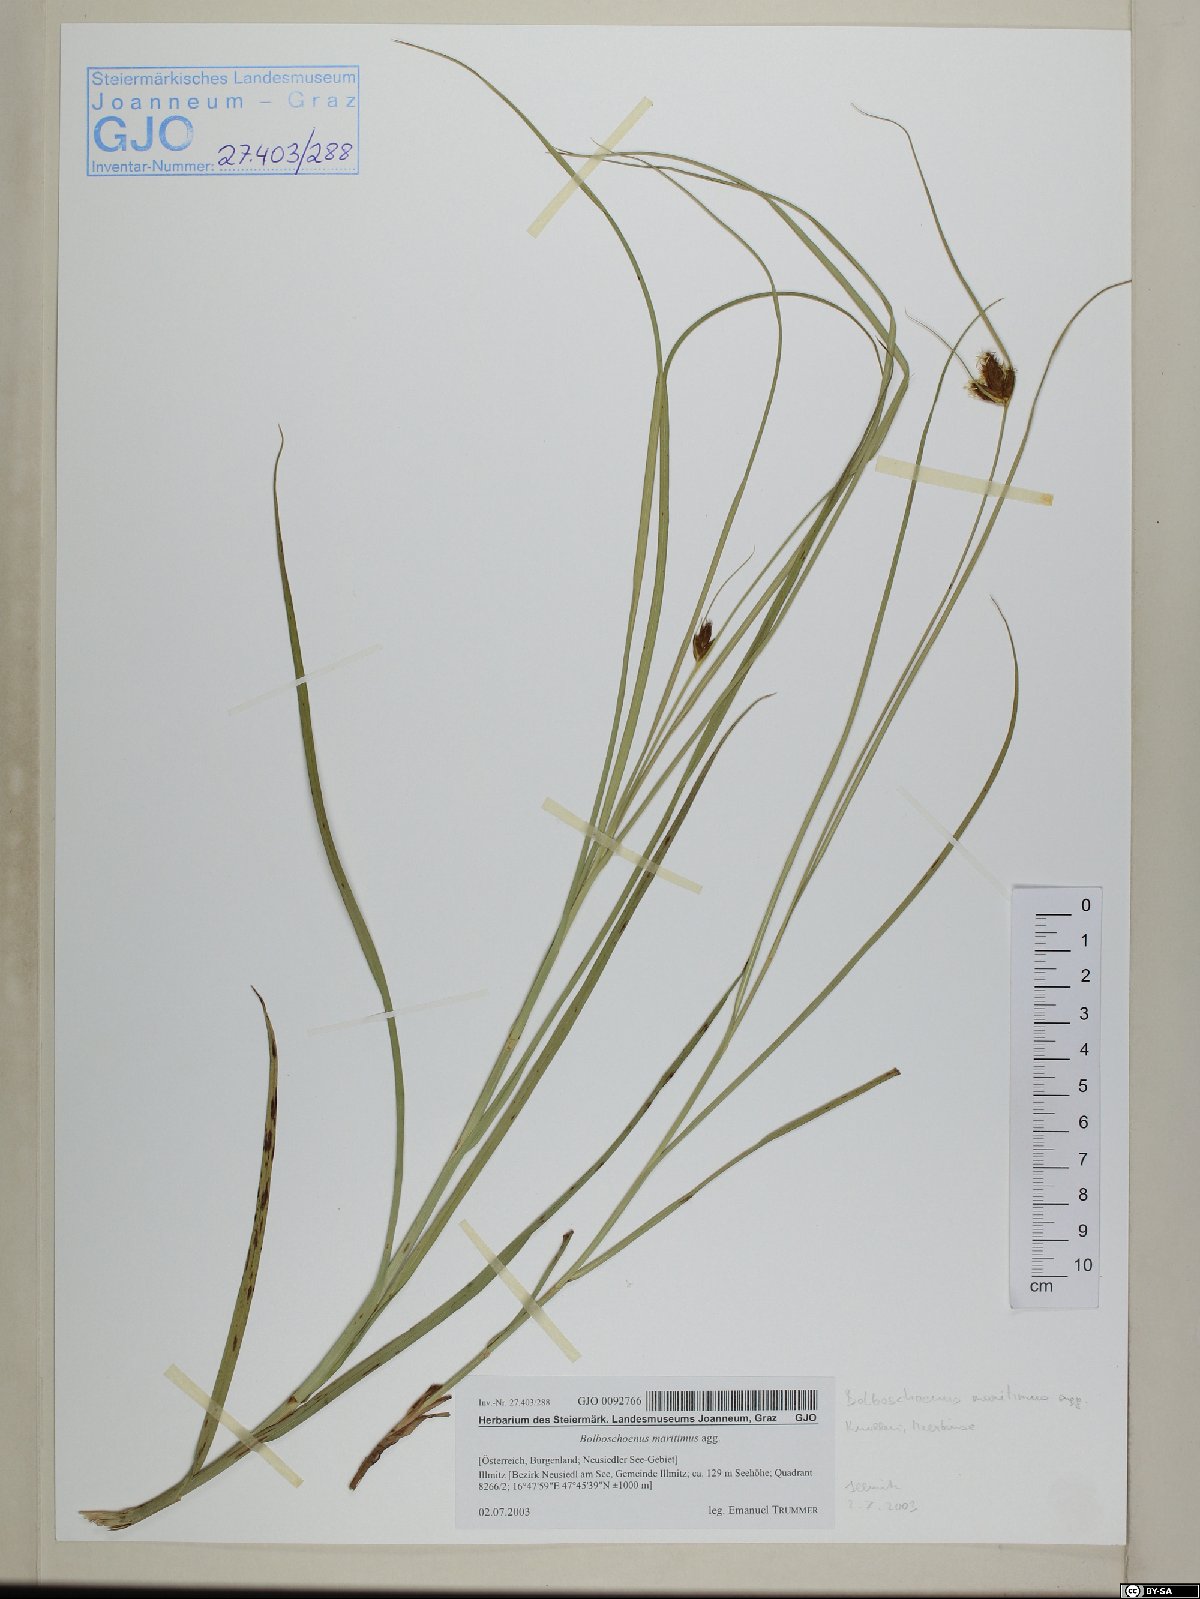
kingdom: Plantae
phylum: Tracheophyta
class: Liliopsida
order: Poales
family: Cyperaceae
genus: Bolboschoenus
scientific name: Bolboschoenus maritimus
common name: Sea club-rush
